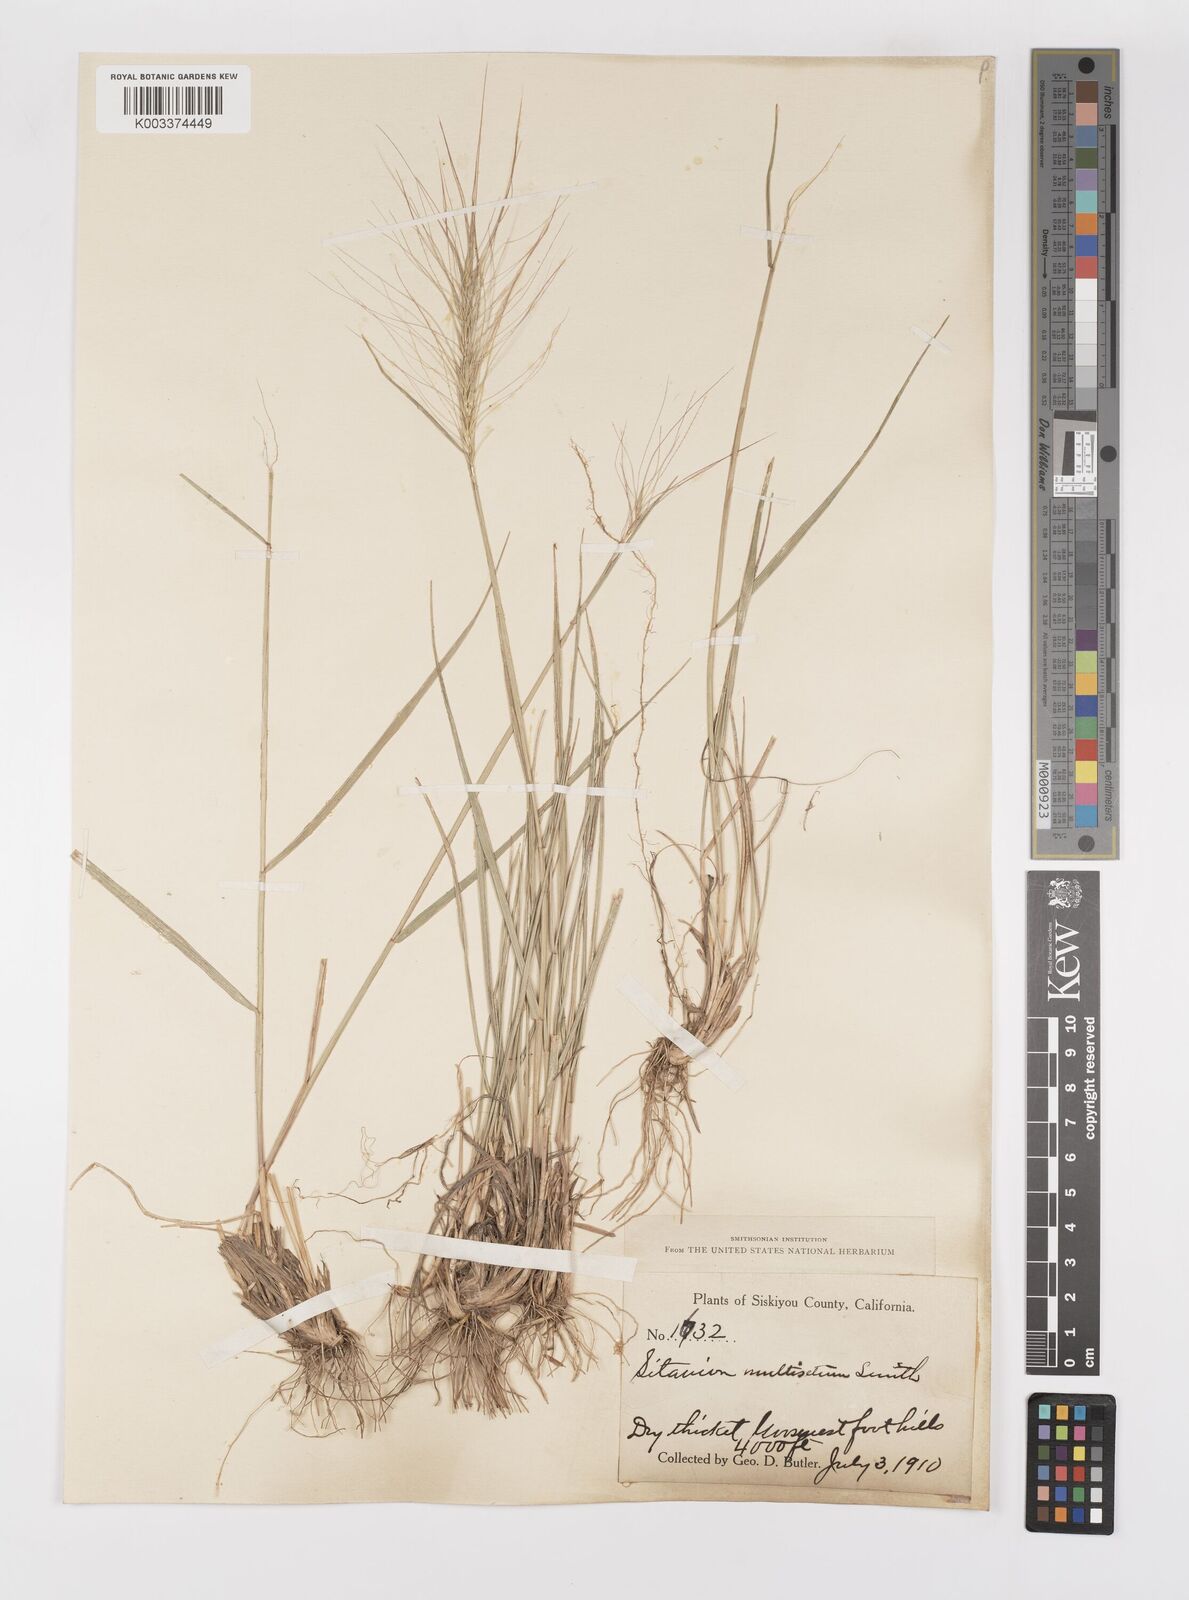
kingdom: Plantae
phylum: Tracheophyta
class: Liliopsida
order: Poales
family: Poaceae
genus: Elymus
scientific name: Elymus multisetus
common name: Big squirreltail
